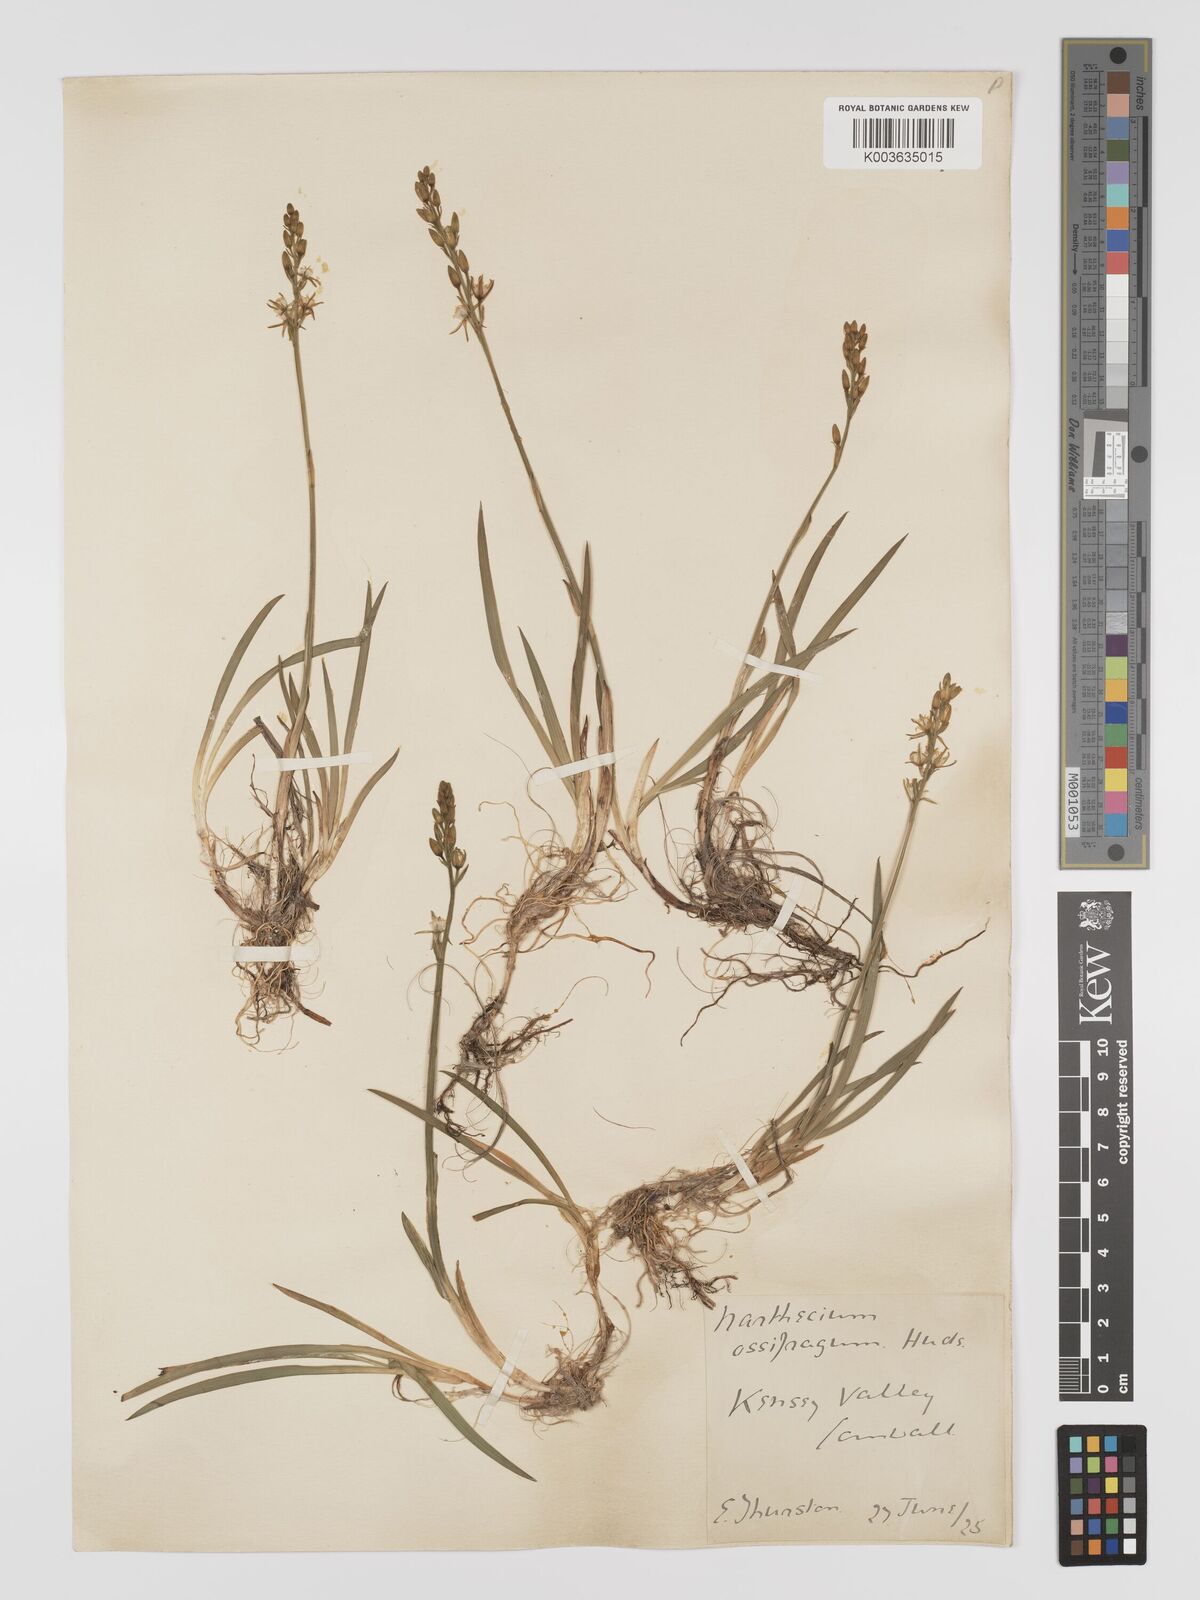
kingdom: Plantae
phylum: Tracheophyta
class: Liliopsida
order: Dioscoreales
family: Nartheciaceae
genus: Narthecium
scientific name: Narthecium ossifragum
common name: Bog asphodel
